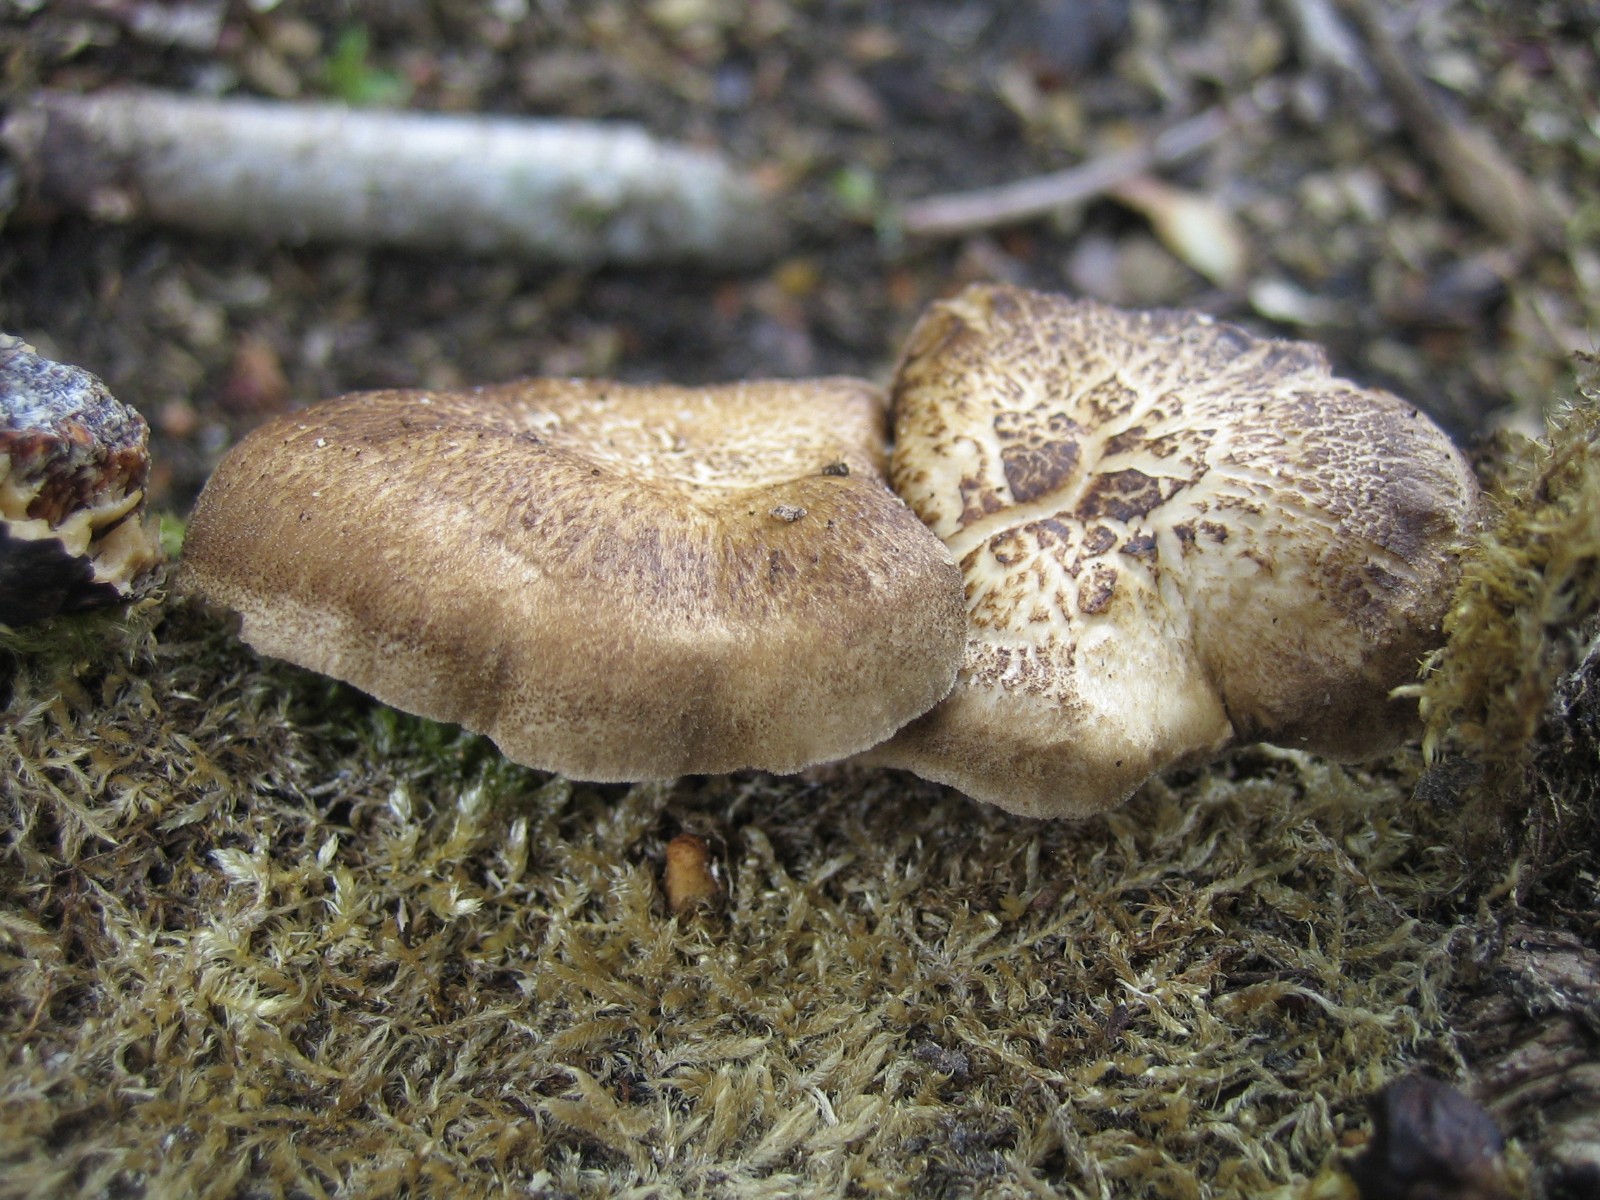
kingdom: Fungi
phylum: Basidiomycota
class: Agaricomycetes
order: Polyporales
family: Polyporaceae
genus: Lentinus
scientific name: Lentinus substrictus
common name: forårs-stilkporesvamp
